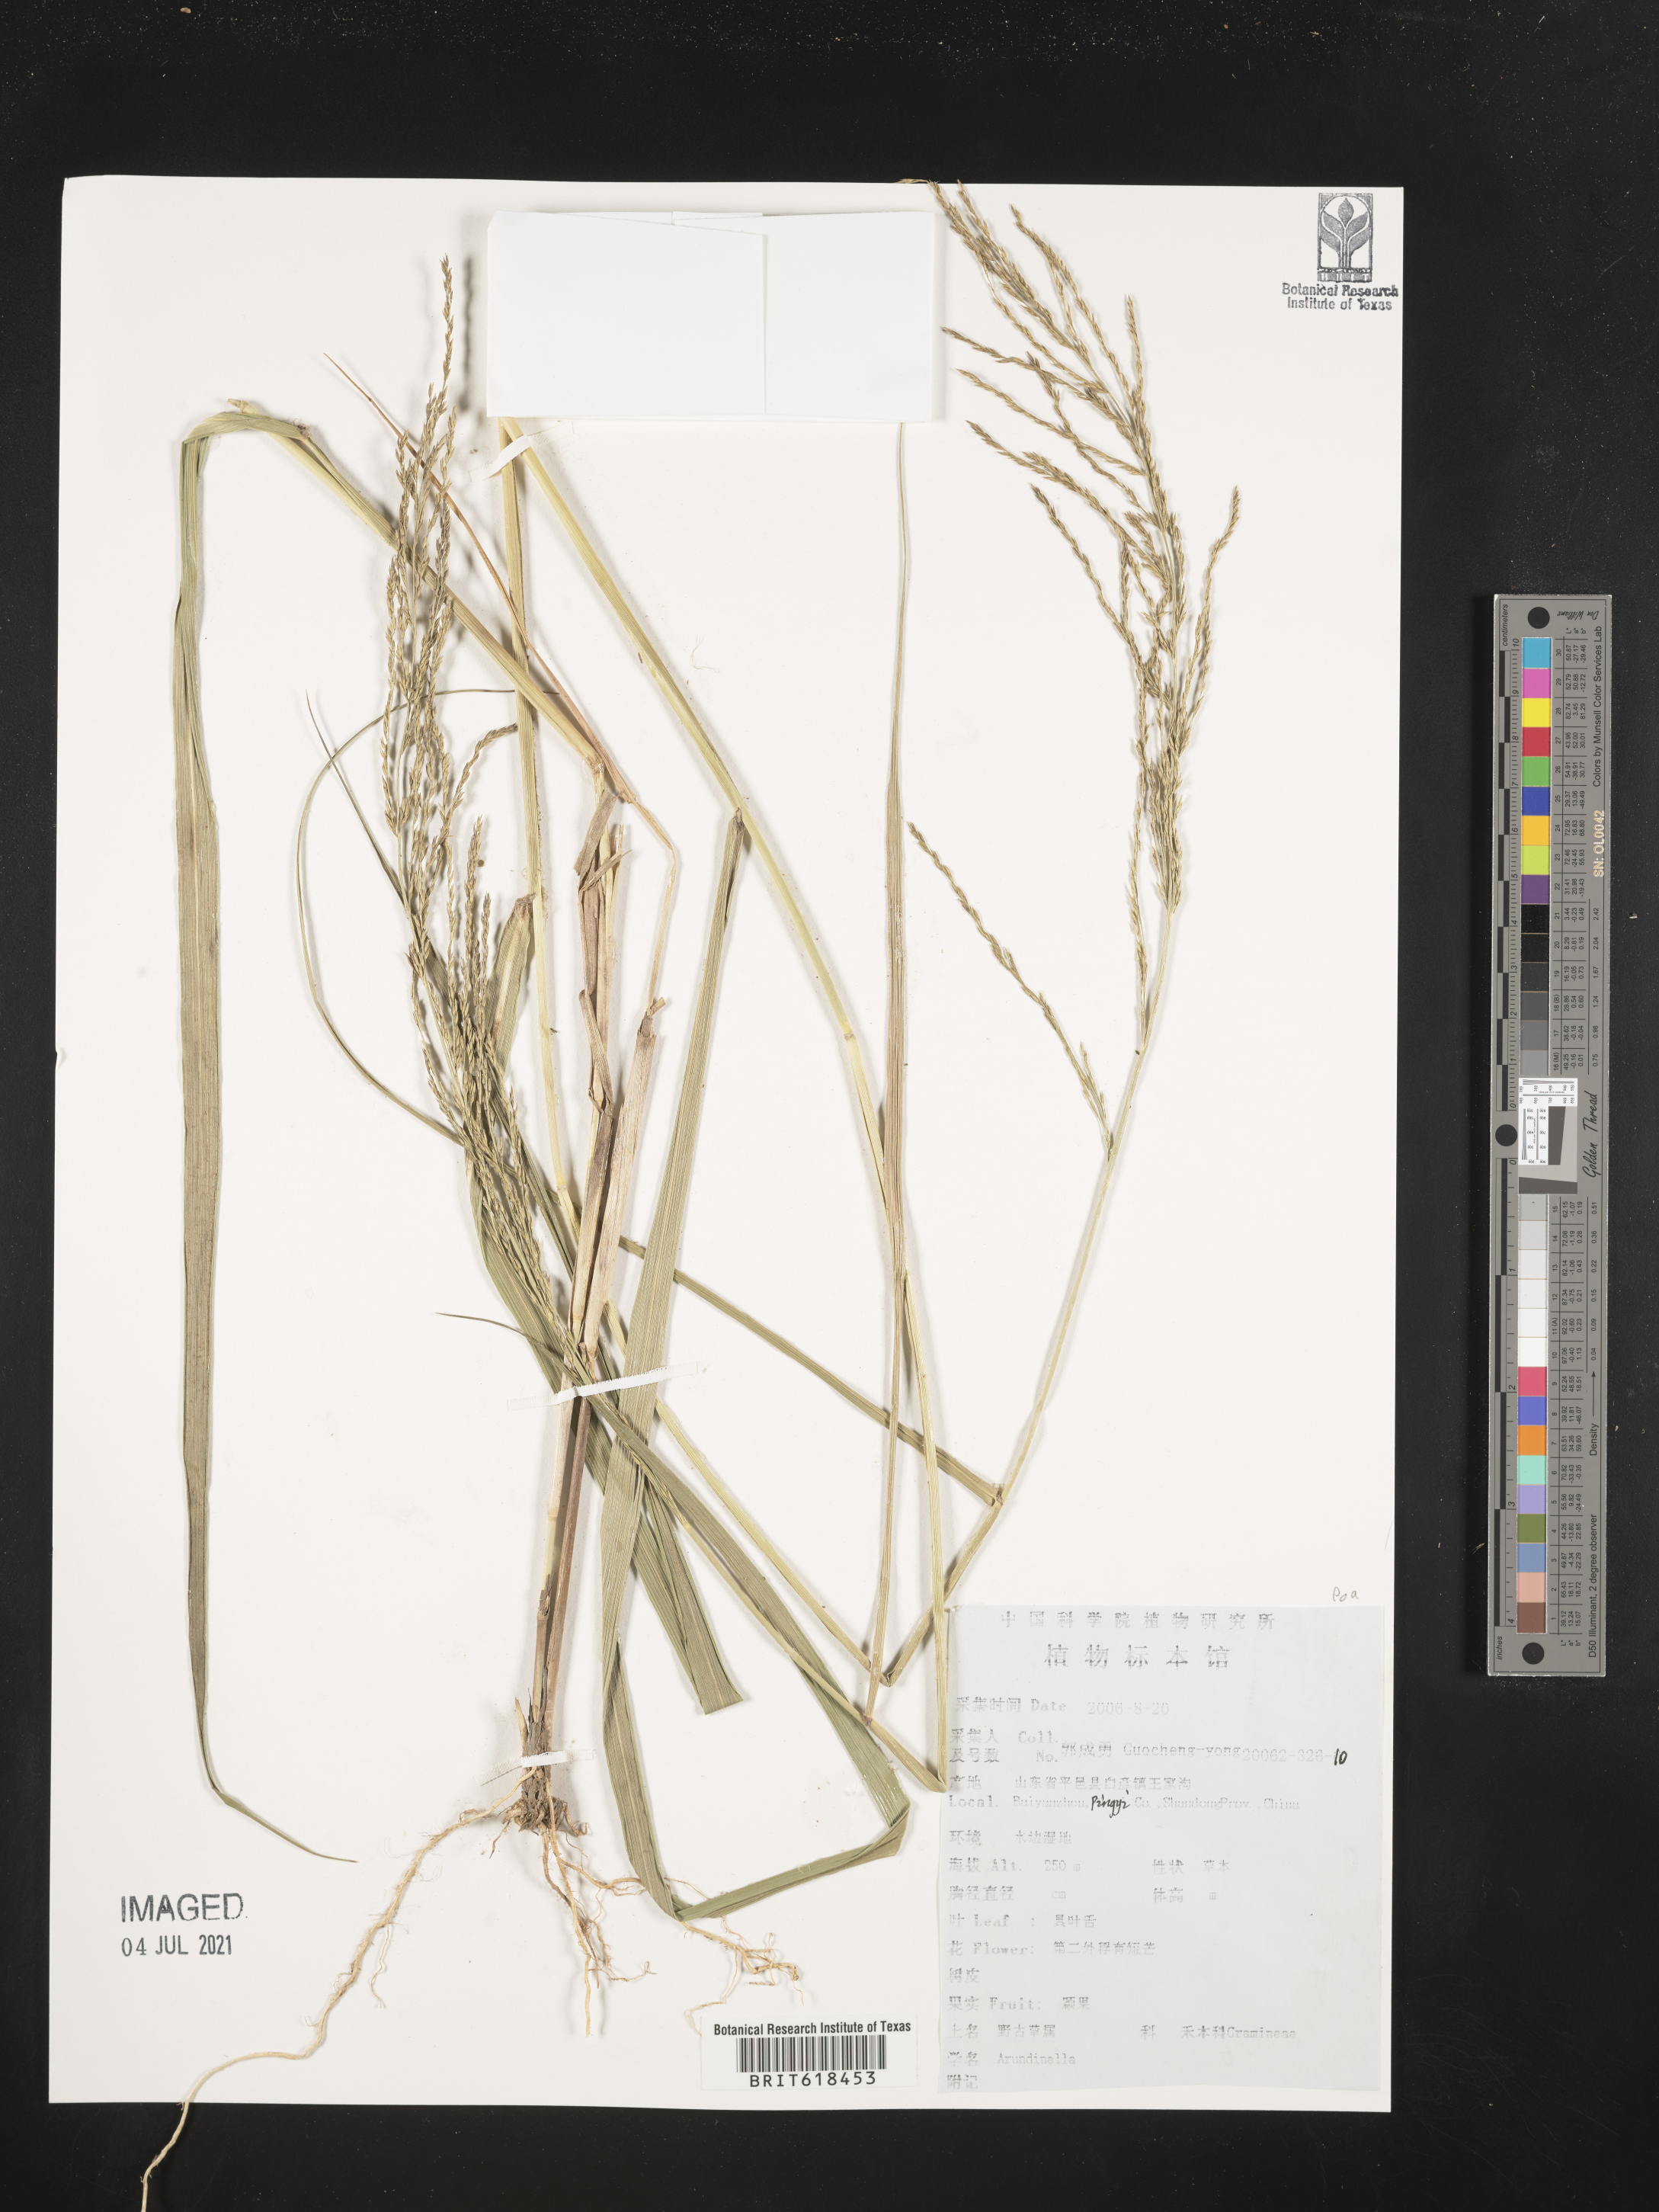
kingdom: Plantae
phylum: Tracheophyta
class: Liliopsida
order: Poales
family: Poaceae
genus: Arundinella
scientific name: Arundinella
